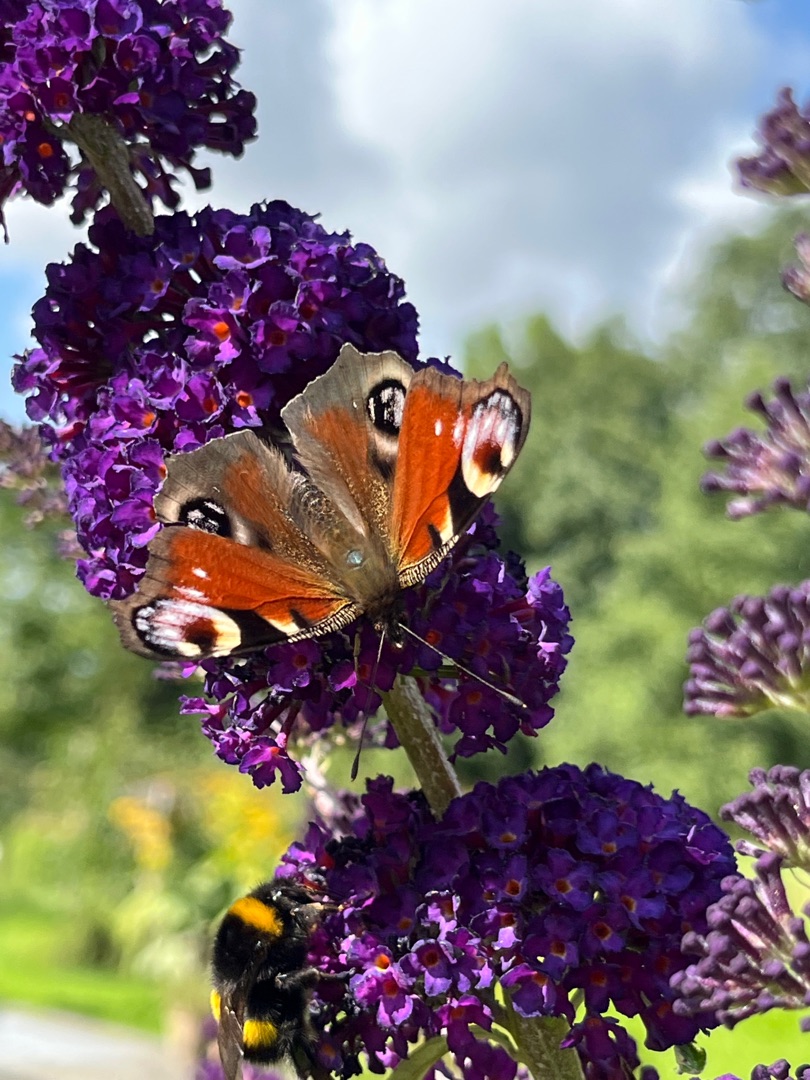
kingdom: Animalia
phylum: Arthropoda
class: Insecta
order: Lepidoptera
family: Nymphalidae
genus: Aglais
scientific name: Aglais io
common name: Dagpåfugleøje
